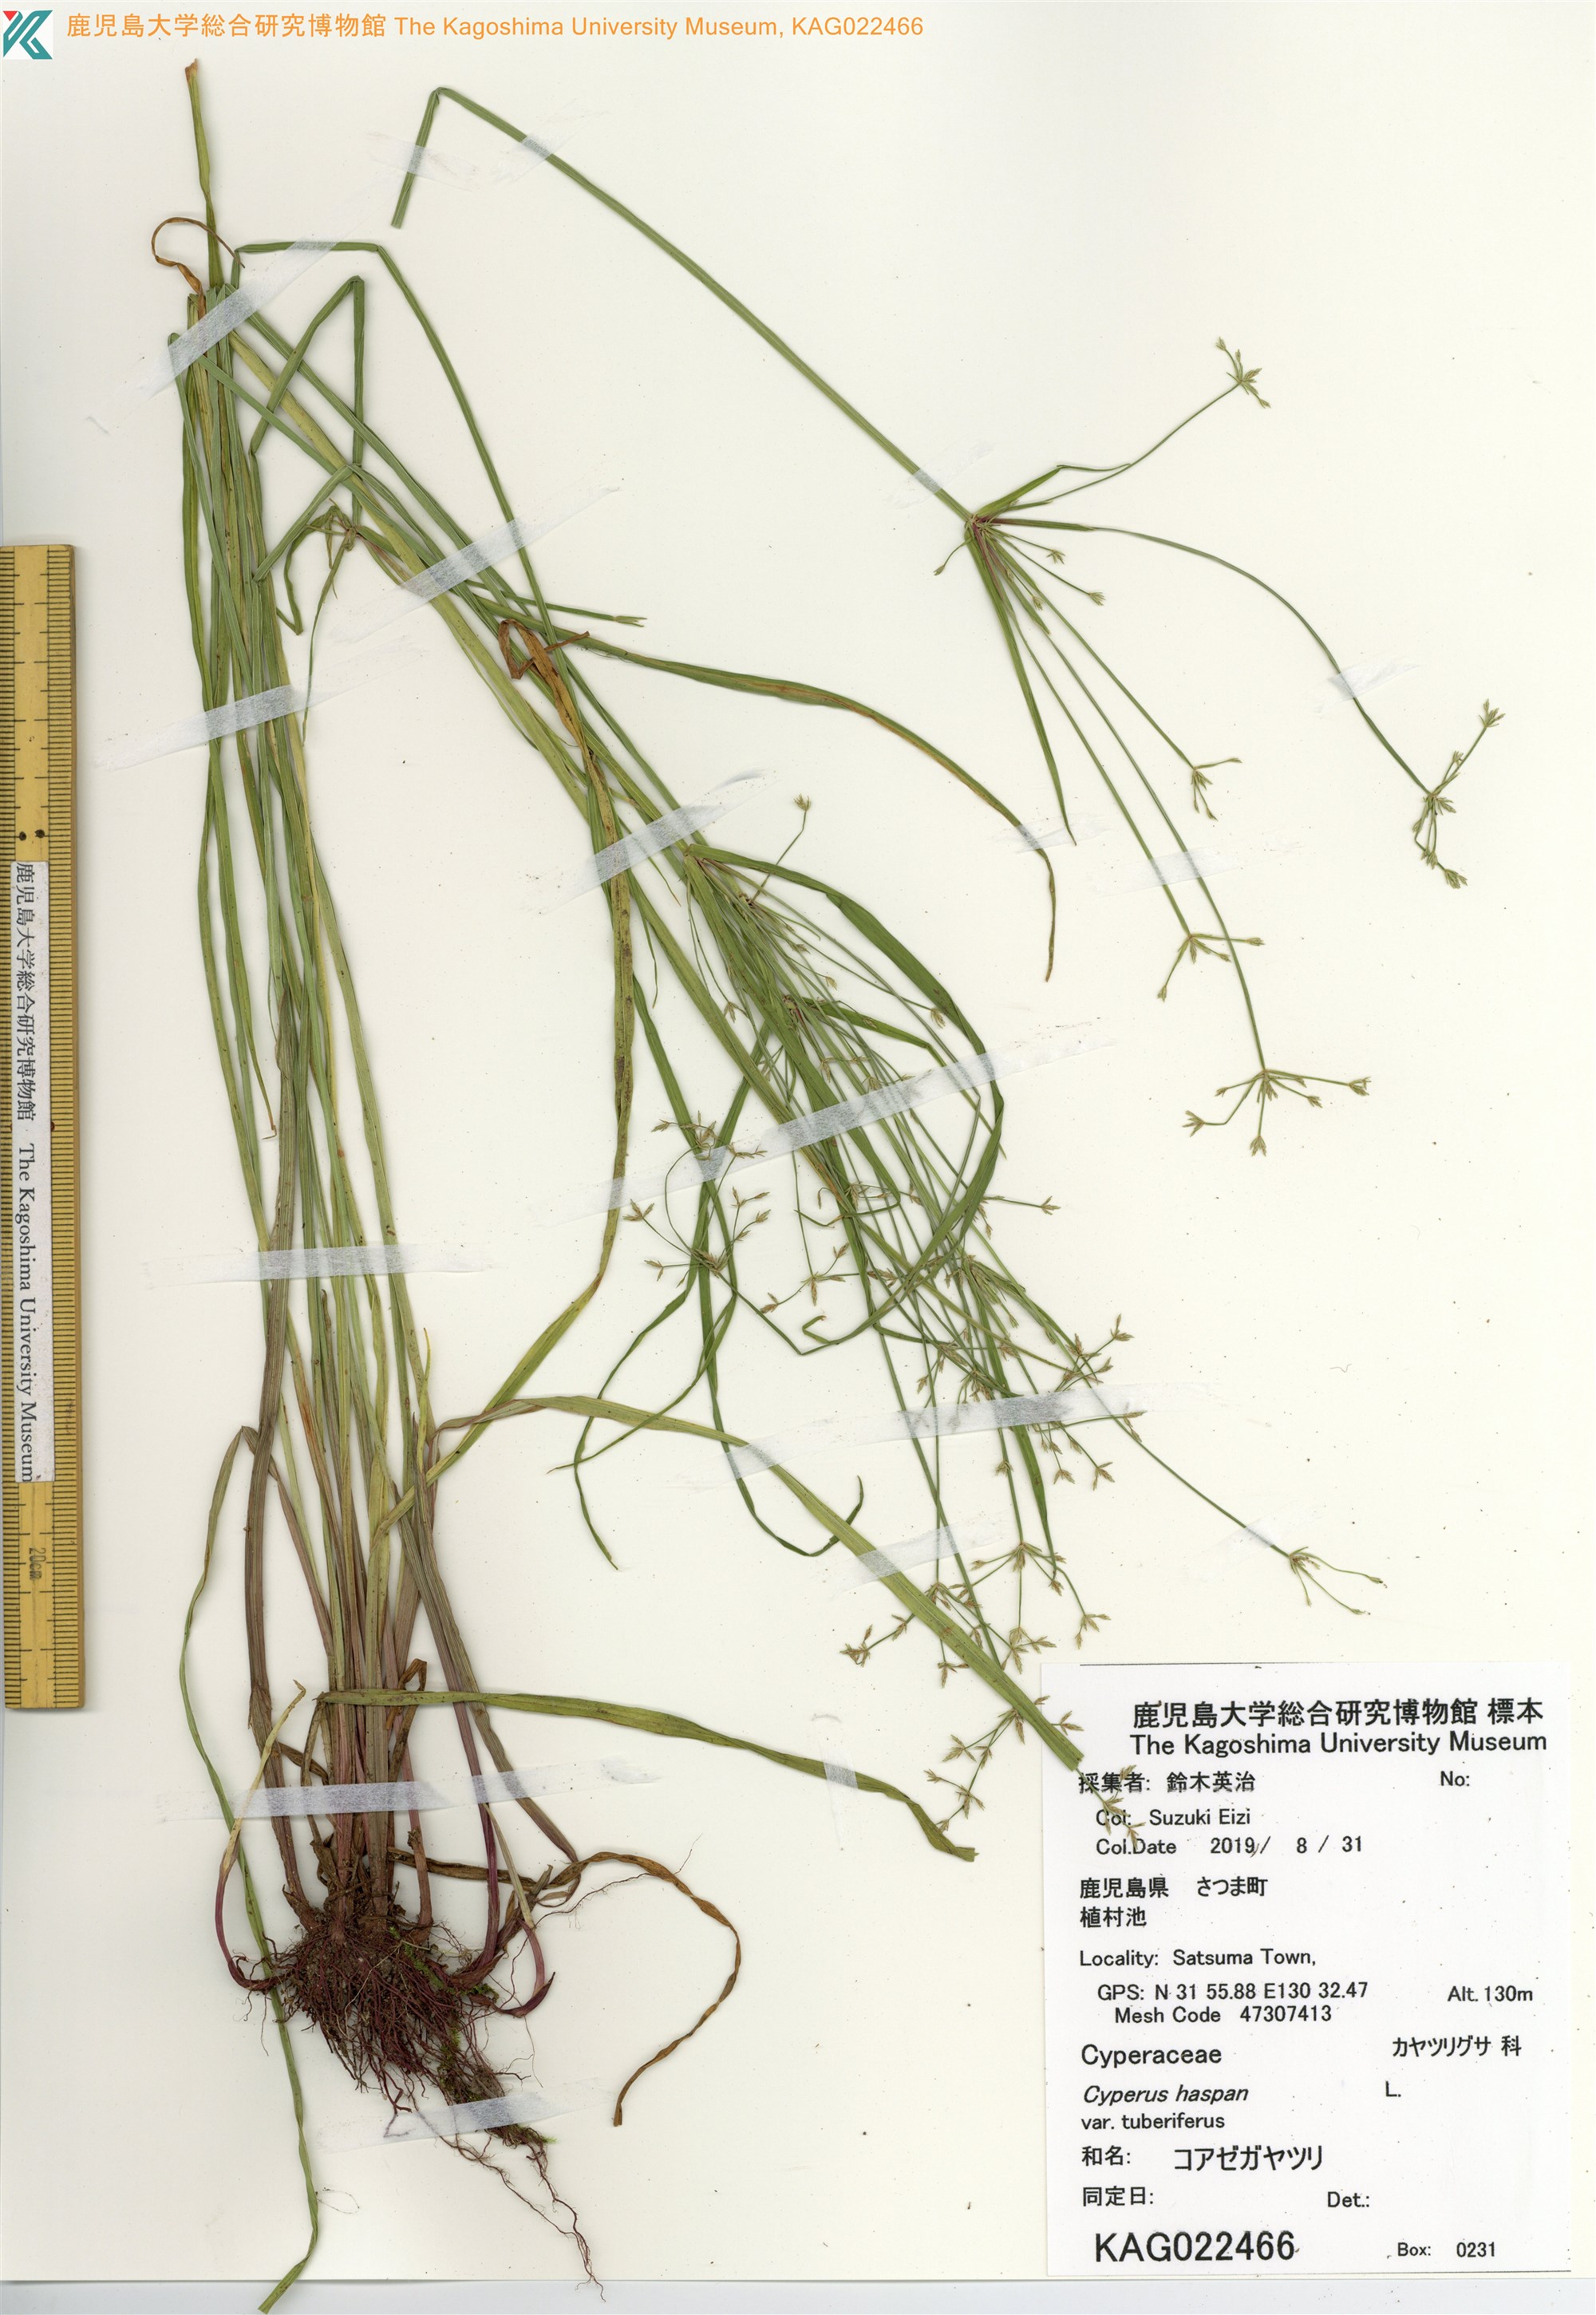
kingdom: Plantae
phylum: Tracheophyta
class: Liliopsida
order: Poales
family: Cyperaceae
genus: Cyperus
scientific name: Cyperus haspan
